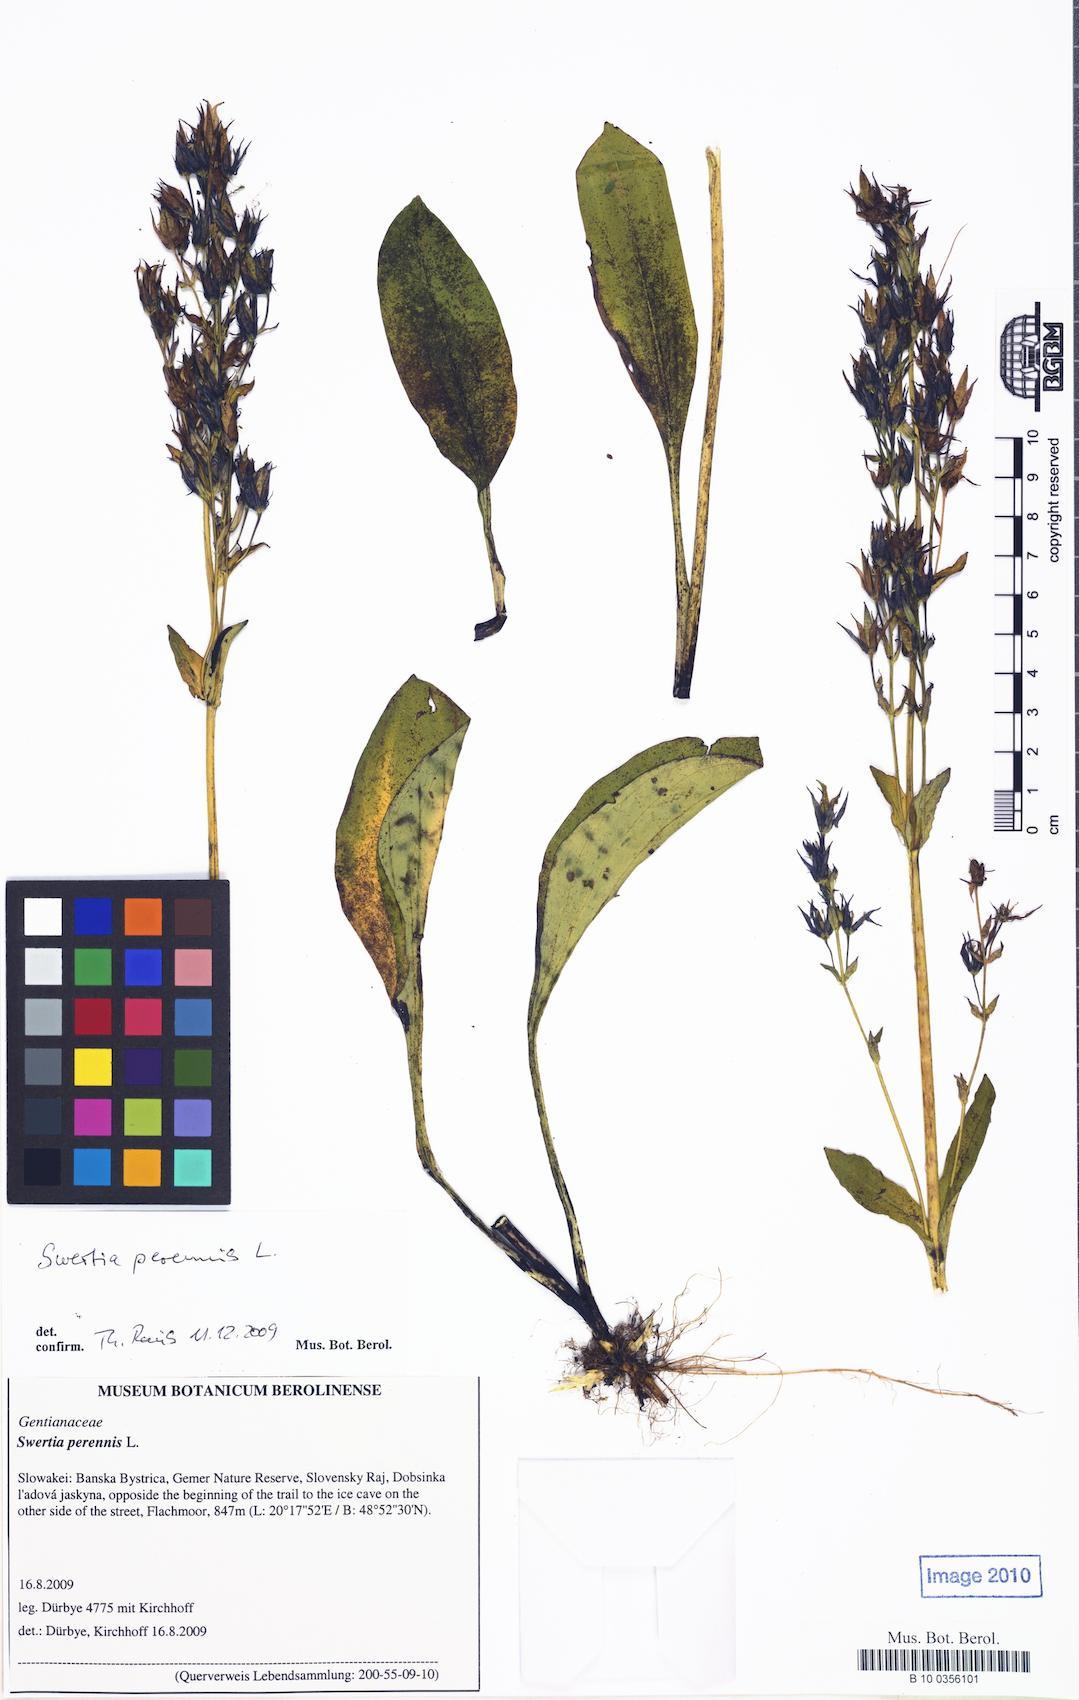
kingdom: Plantae
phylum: Tracheophyta
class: Magnoliopsida
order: Gentianales
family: Gentianaceae
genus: Swertia
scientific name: Swertia perennis
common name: Alpine bog swertia
